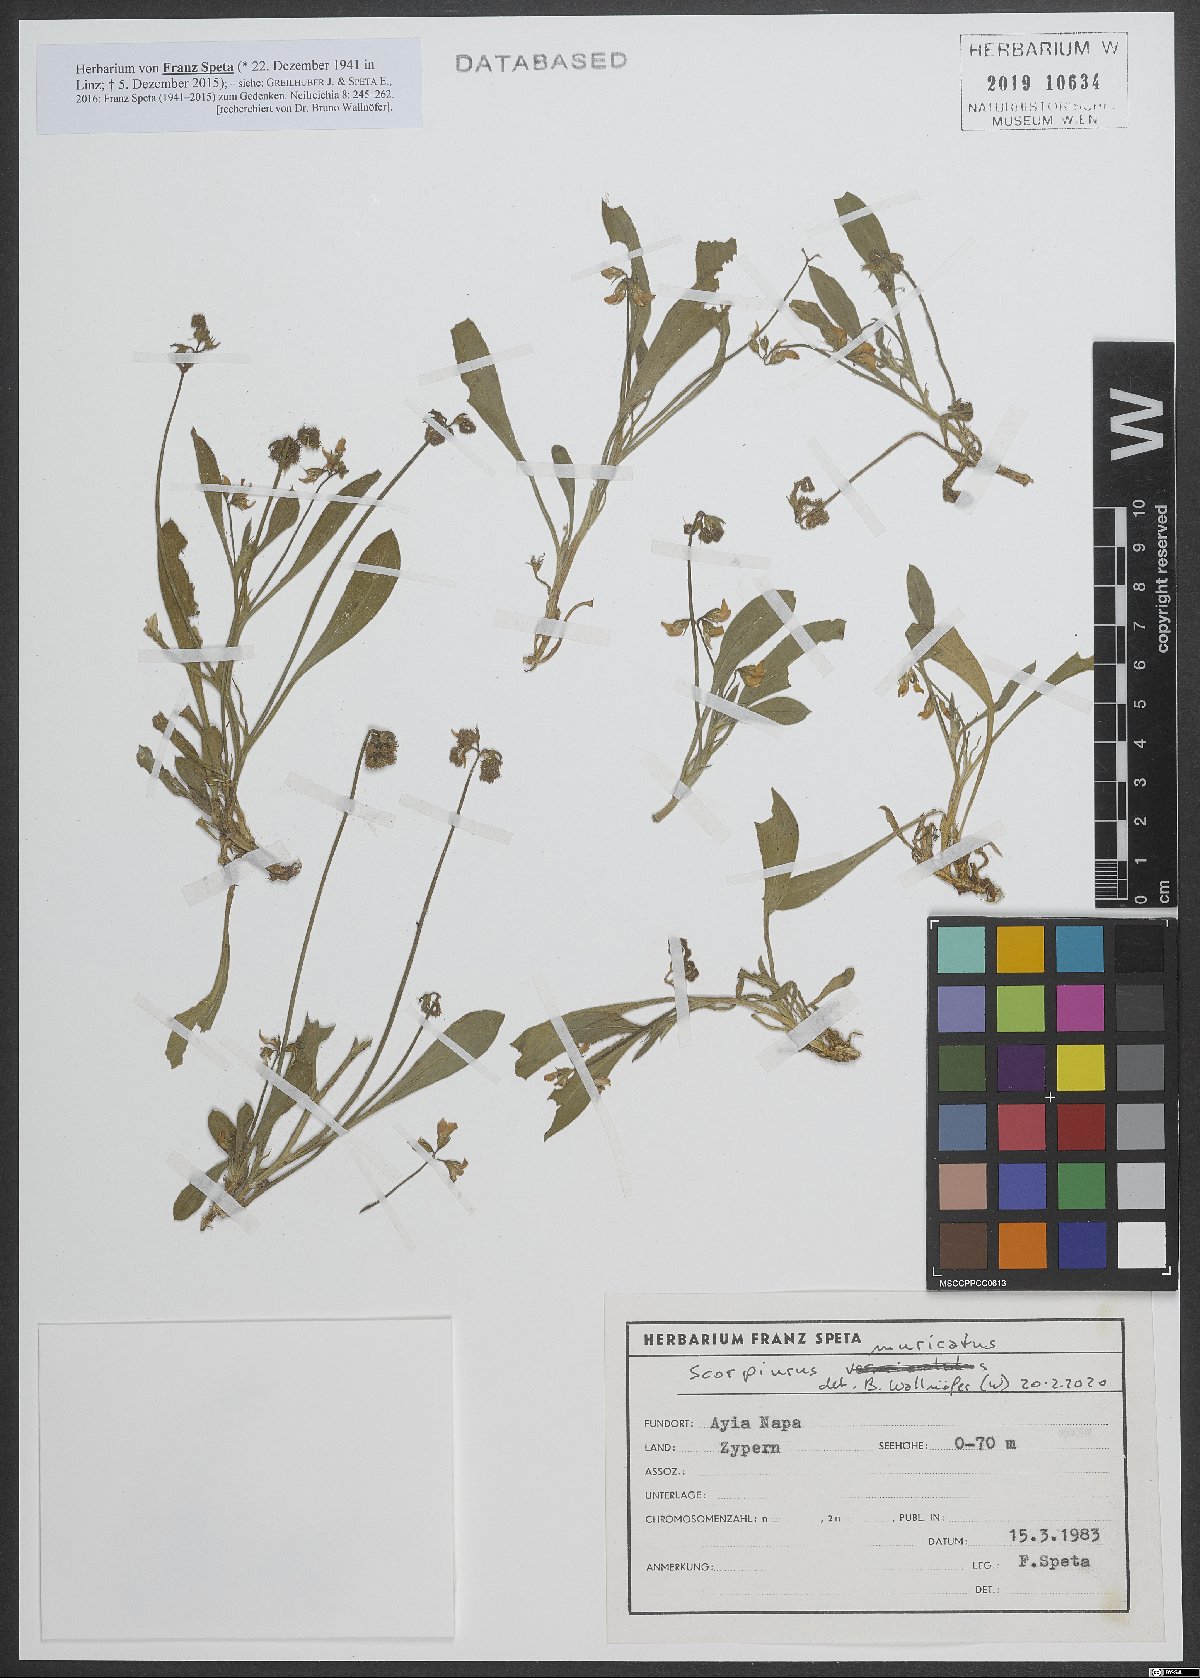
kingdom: Plantae
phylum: Tracheophyta
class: Magnoliopsida
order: Fabales
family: Fabaceae
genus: Scorpiurus
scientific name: Scorpiurus muricatus
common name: Caterpillar-plant
